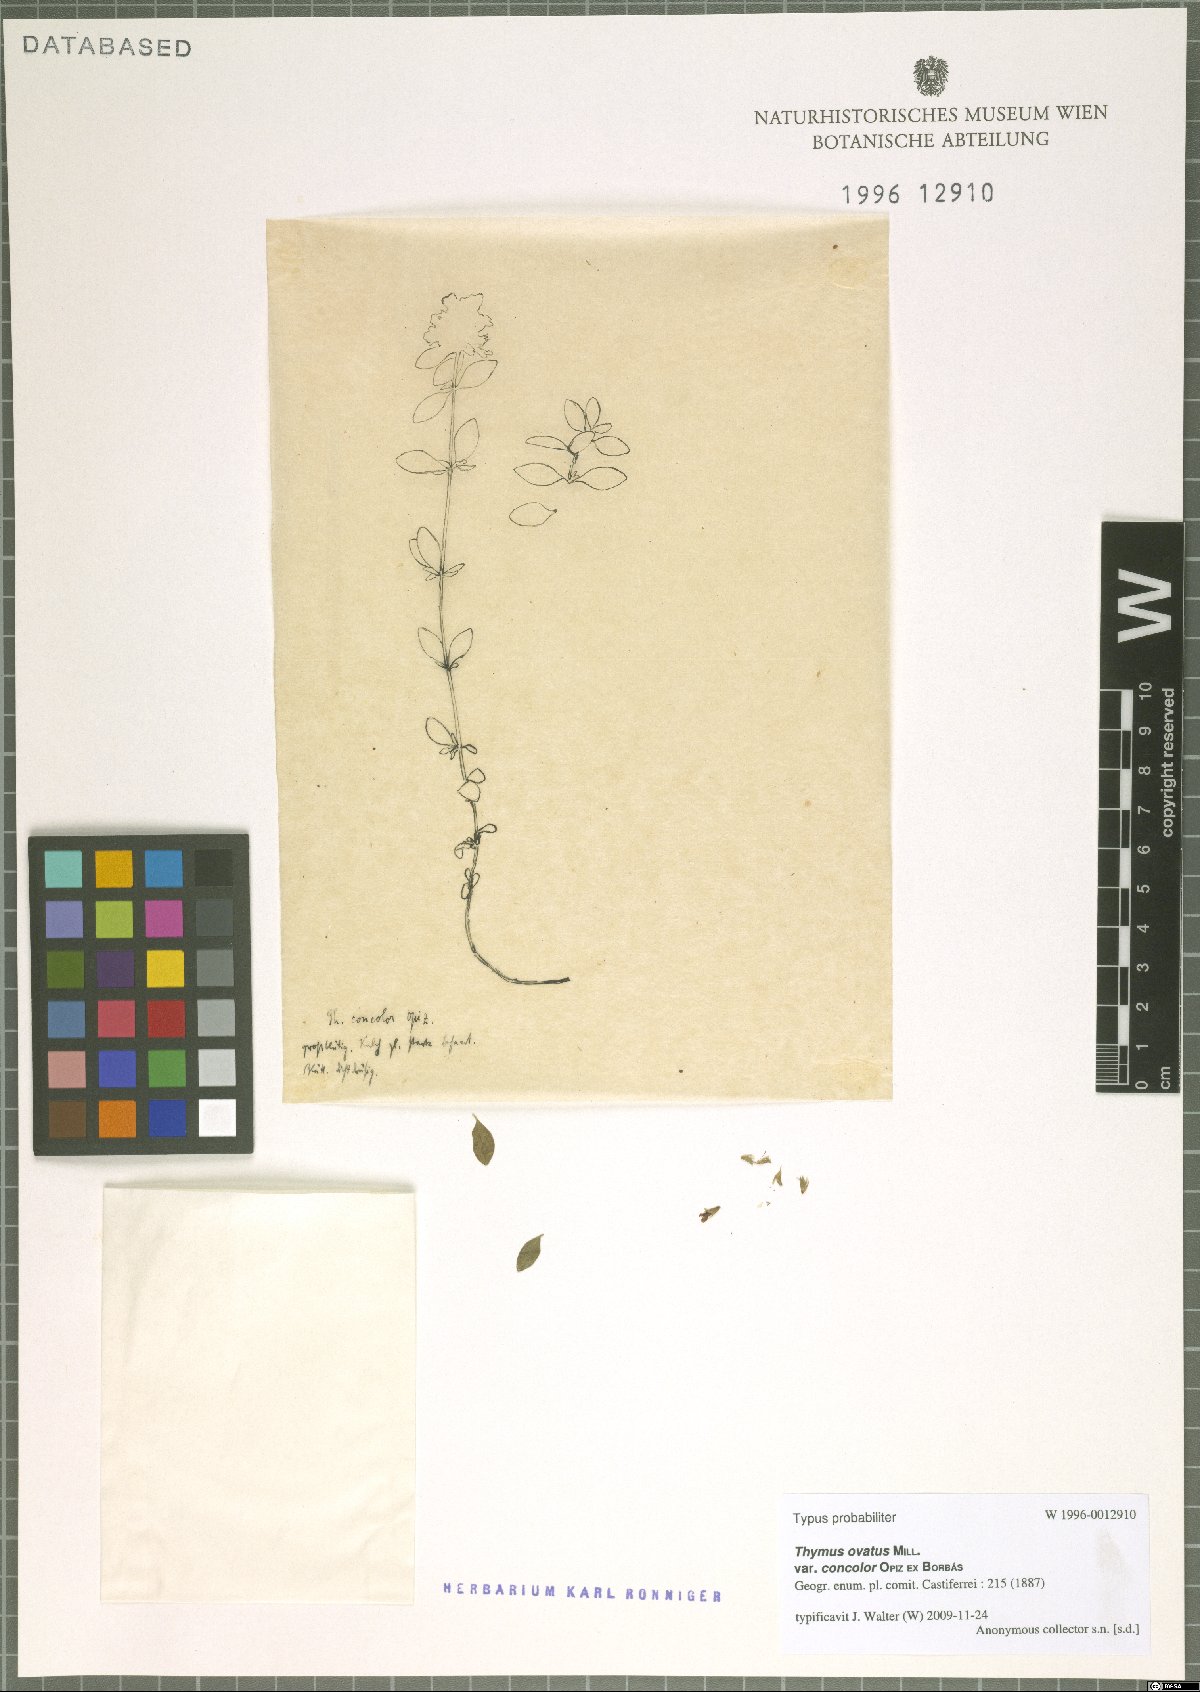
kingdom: Plantae
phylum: Tracheophyta
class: Magnoliopsida
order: Lamiales
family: Lamiaceae
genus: Thymus
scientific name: Thymus serpyllum
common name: Breckland thyme
